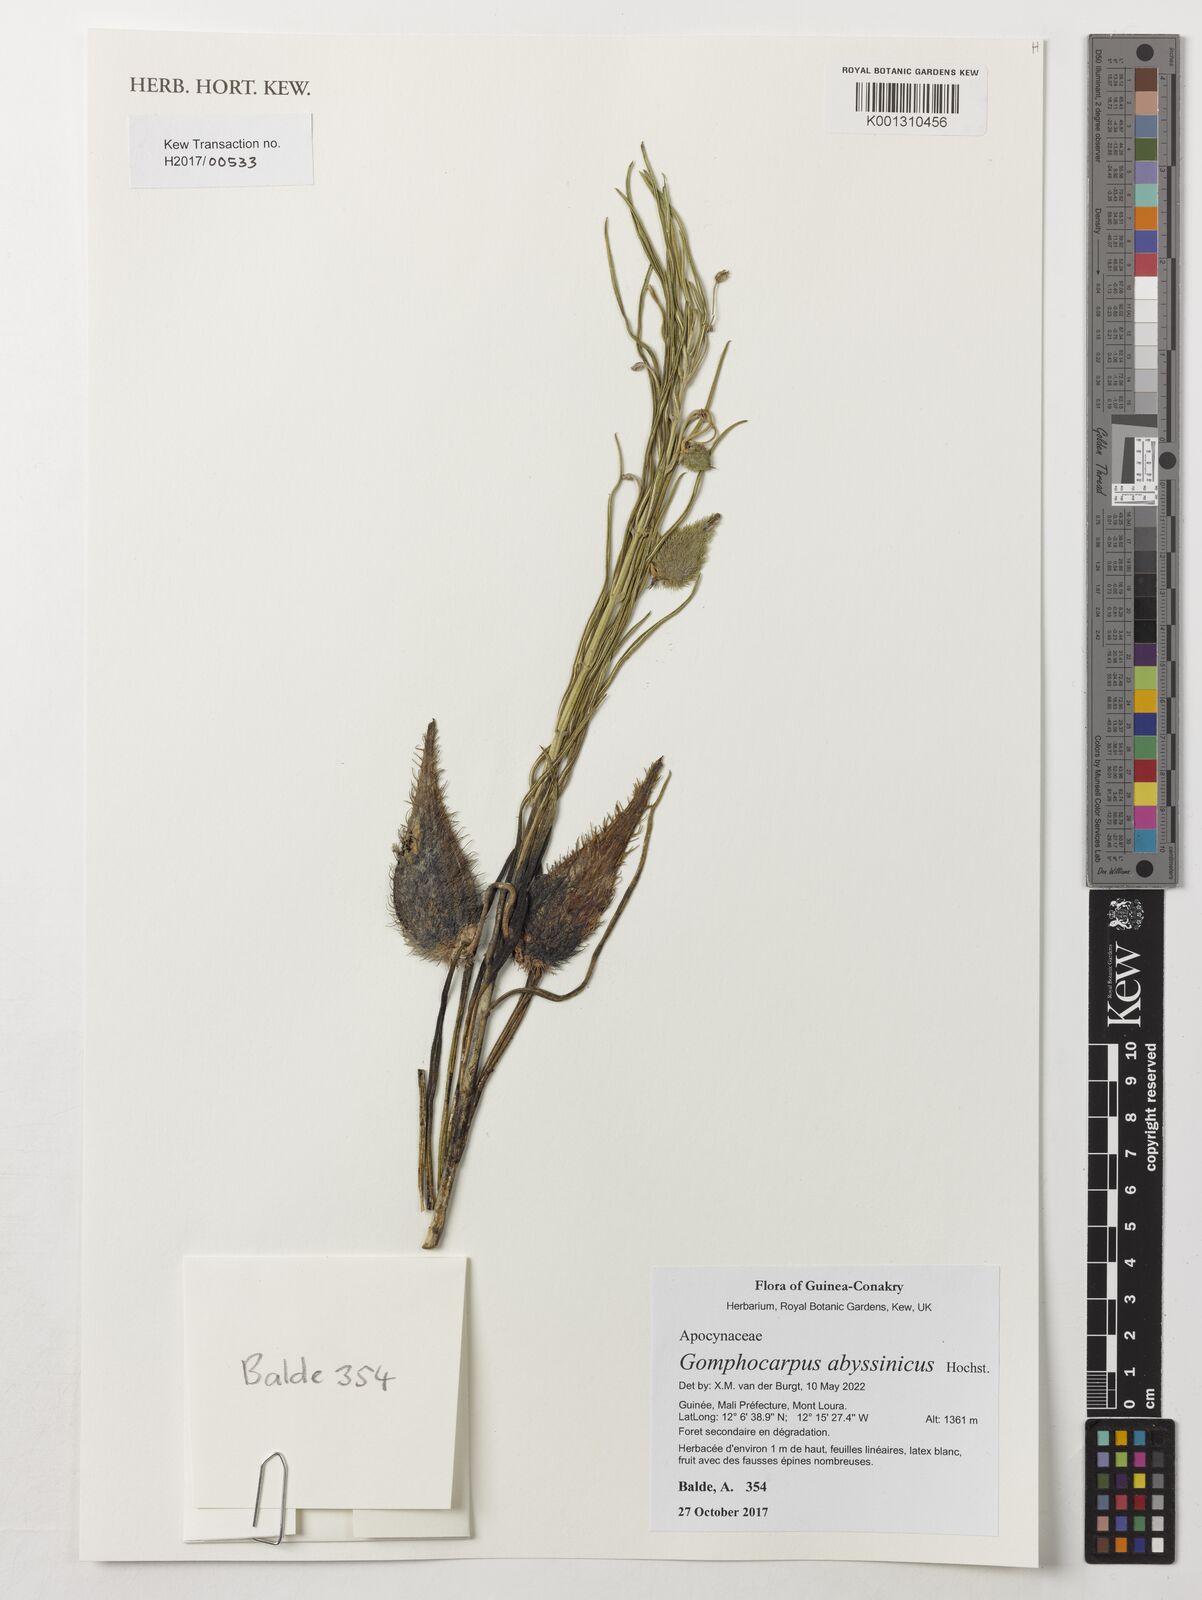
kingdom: Plantae
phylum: Tracheophyta
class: Magnoliopsida
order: Gentianales
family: Apocynaceae
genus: Gomphocarpus
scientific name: Gomphocarpus abyssinicus
